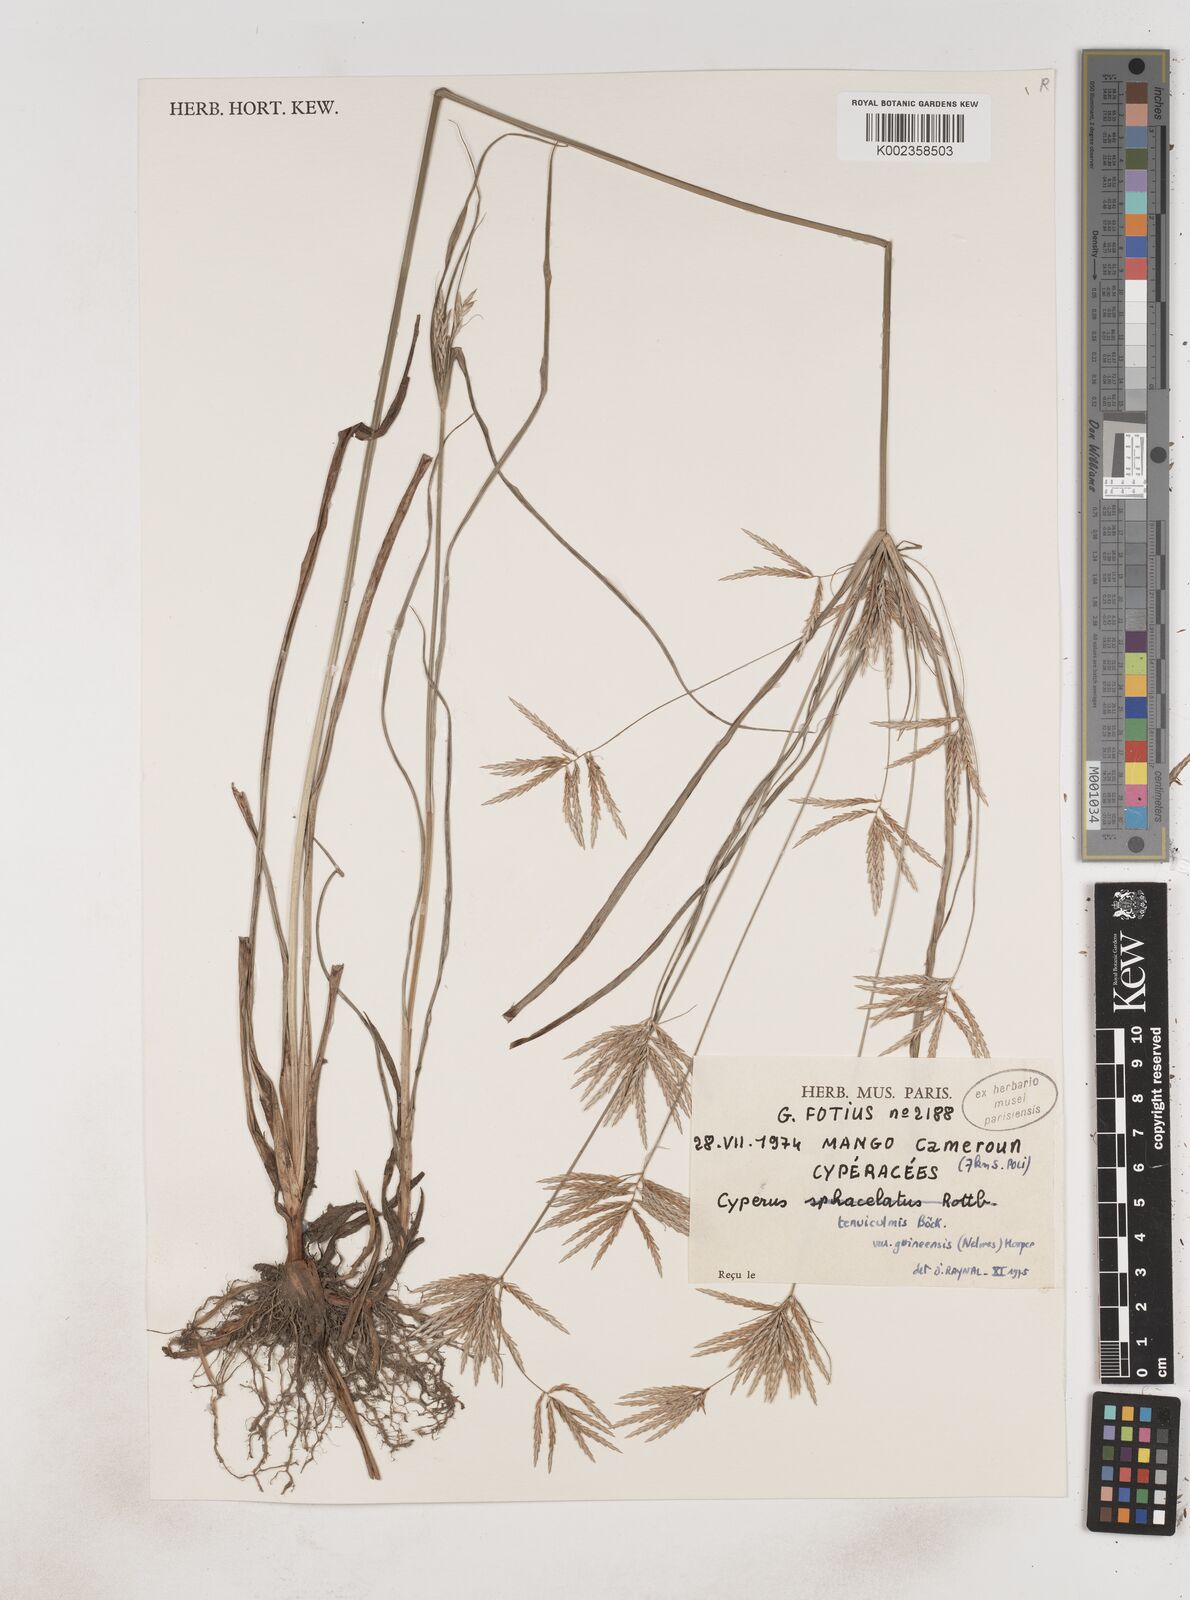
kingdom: Plantae
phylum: Tracheophyta
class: Liliopsida
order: Poales
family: Cyperaceae
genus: Cyperus
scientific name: Cyperus tenuiculmis
